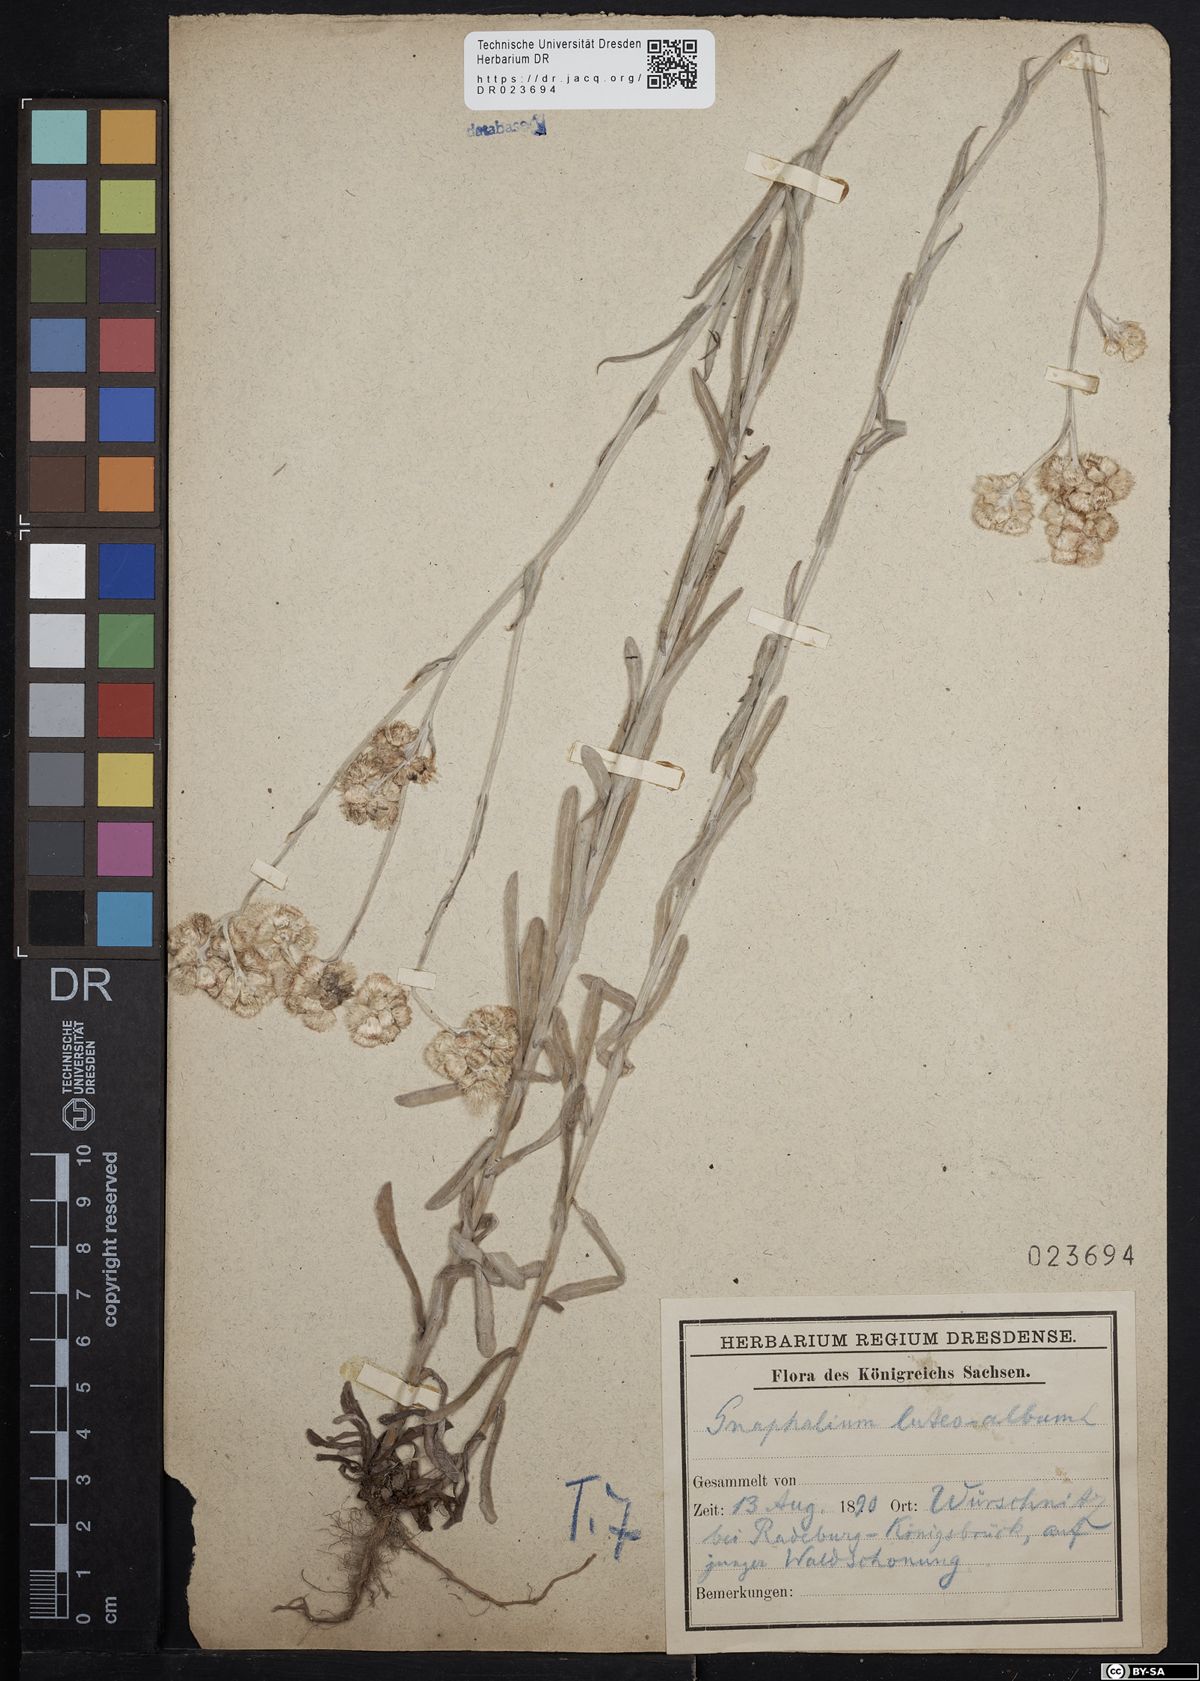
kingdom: Plantae
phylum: Tracheophyta
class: Magnoliopsida
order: Asterales
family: Asteraceae
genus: Helichrysum
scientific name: Helichrysum luteoalbum
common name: Daisy
